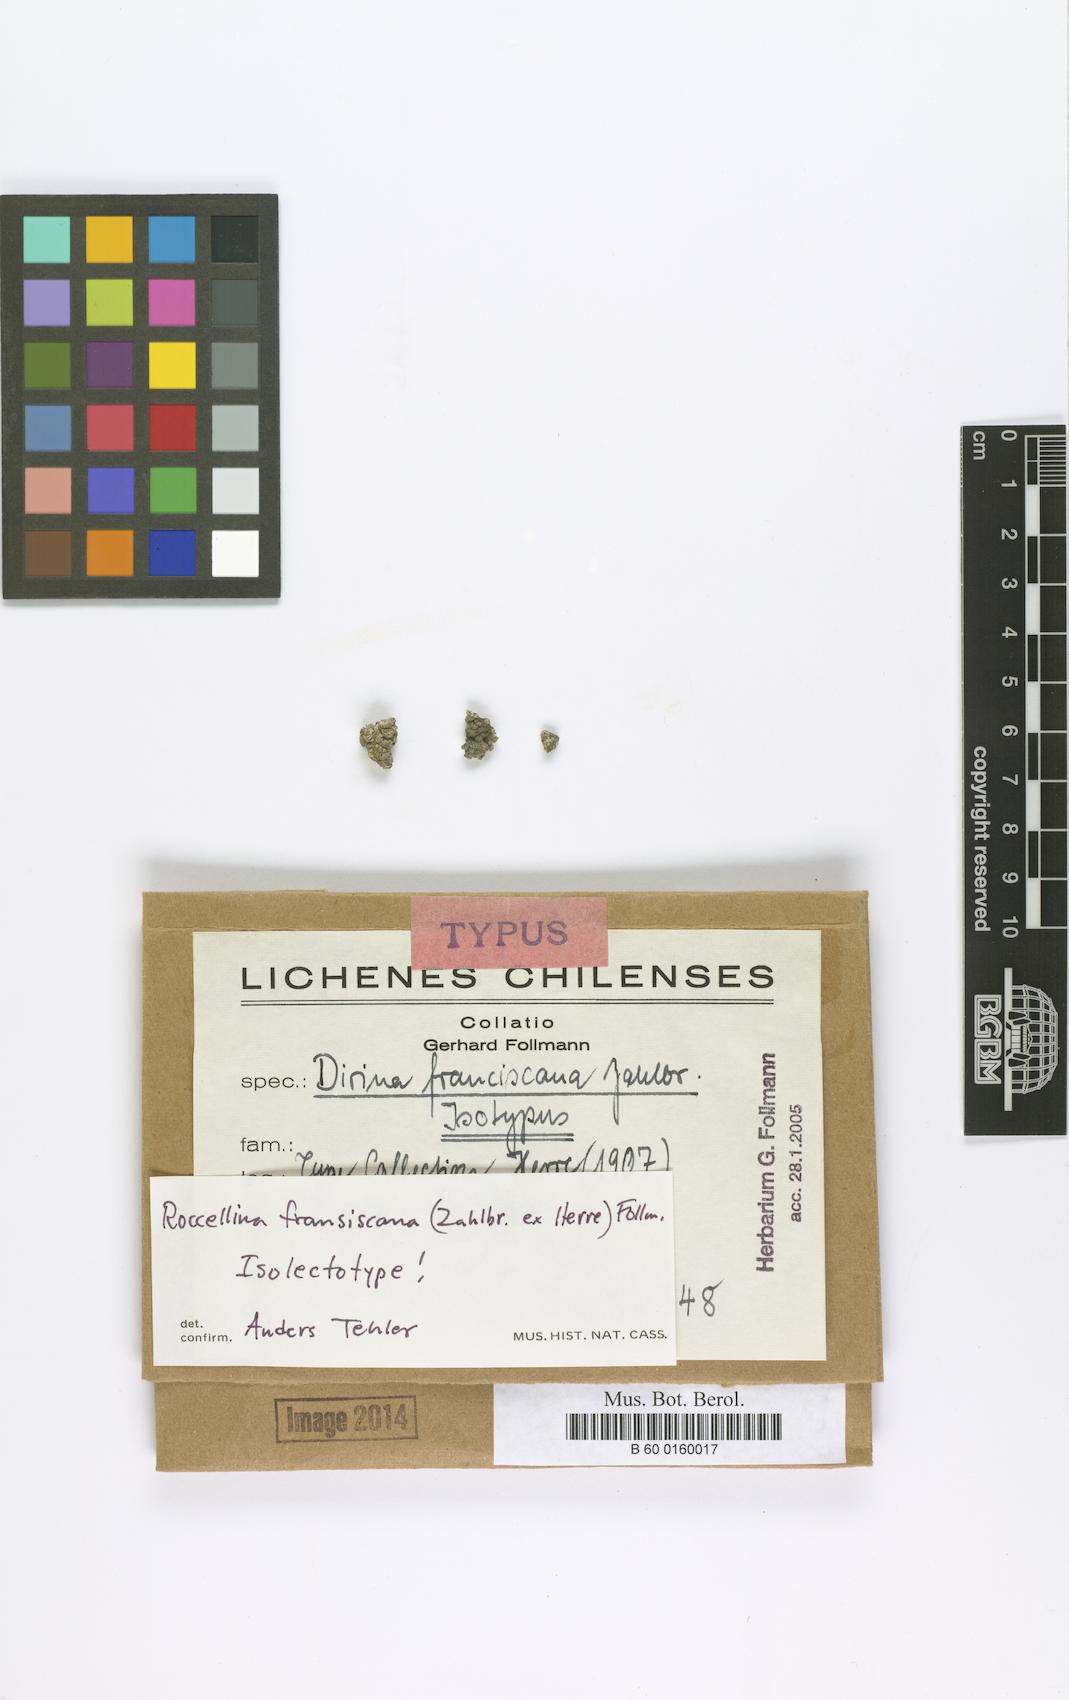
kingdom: Fungi
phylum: Ascomycota
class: Arthoniomycetes
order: Arthoniales
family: Roccellaceae
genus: Dendrographa
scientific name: Dendrographa franciscana
